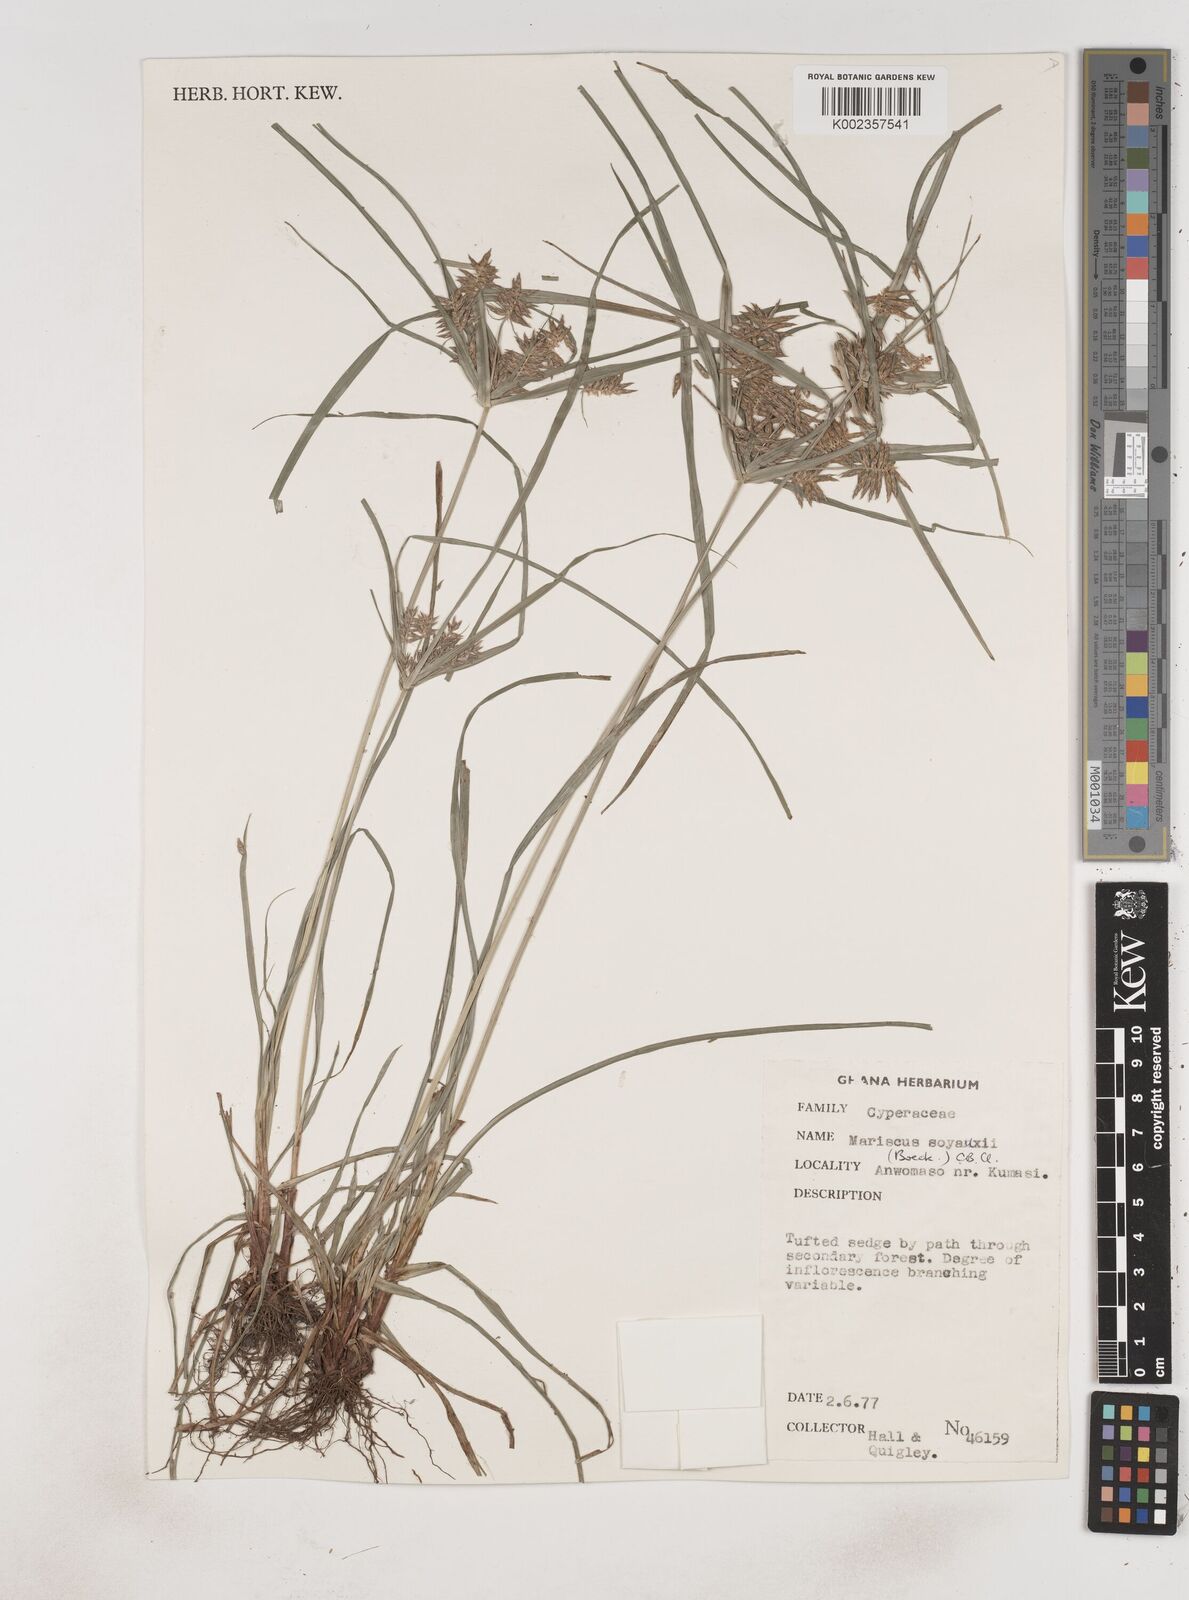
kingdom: Plantae
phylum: Tracheophyta
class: Liliopsida
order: Poales
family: Cyperaceae
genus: Cyperus
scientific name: Cyperus soyauxii
